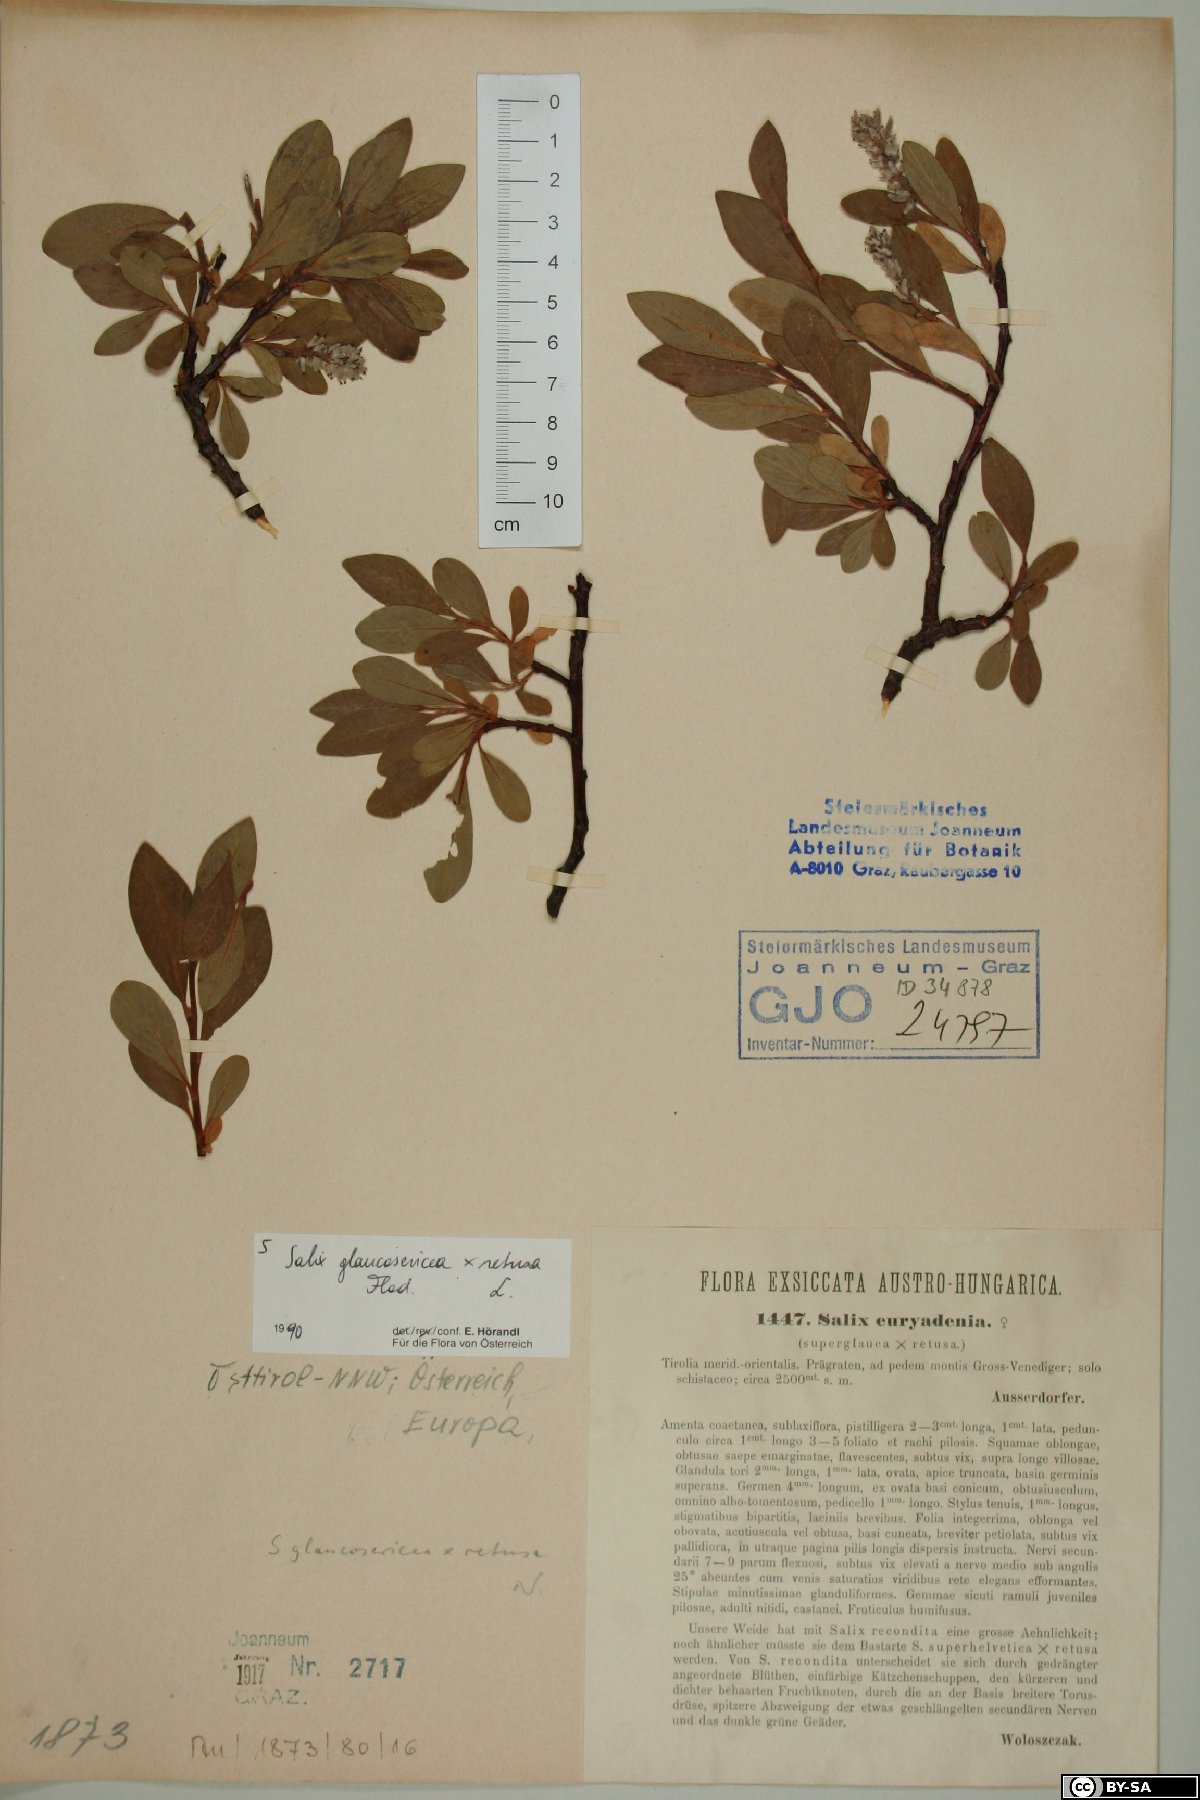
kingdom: Plantae
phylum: Tracheophyta
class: Magnoliopsida
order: Malpighiales
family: Salicaceae
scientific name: Salicaceae
